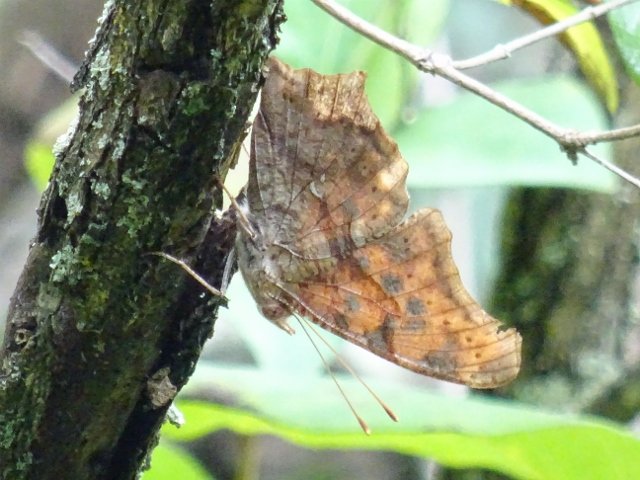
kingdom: Animalia
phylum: Arthropoda
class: Insecta
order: Lepidoptera
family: Nymphalidae
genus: Polygonia
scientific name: Polygonia interrogationis
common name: Question Mark
